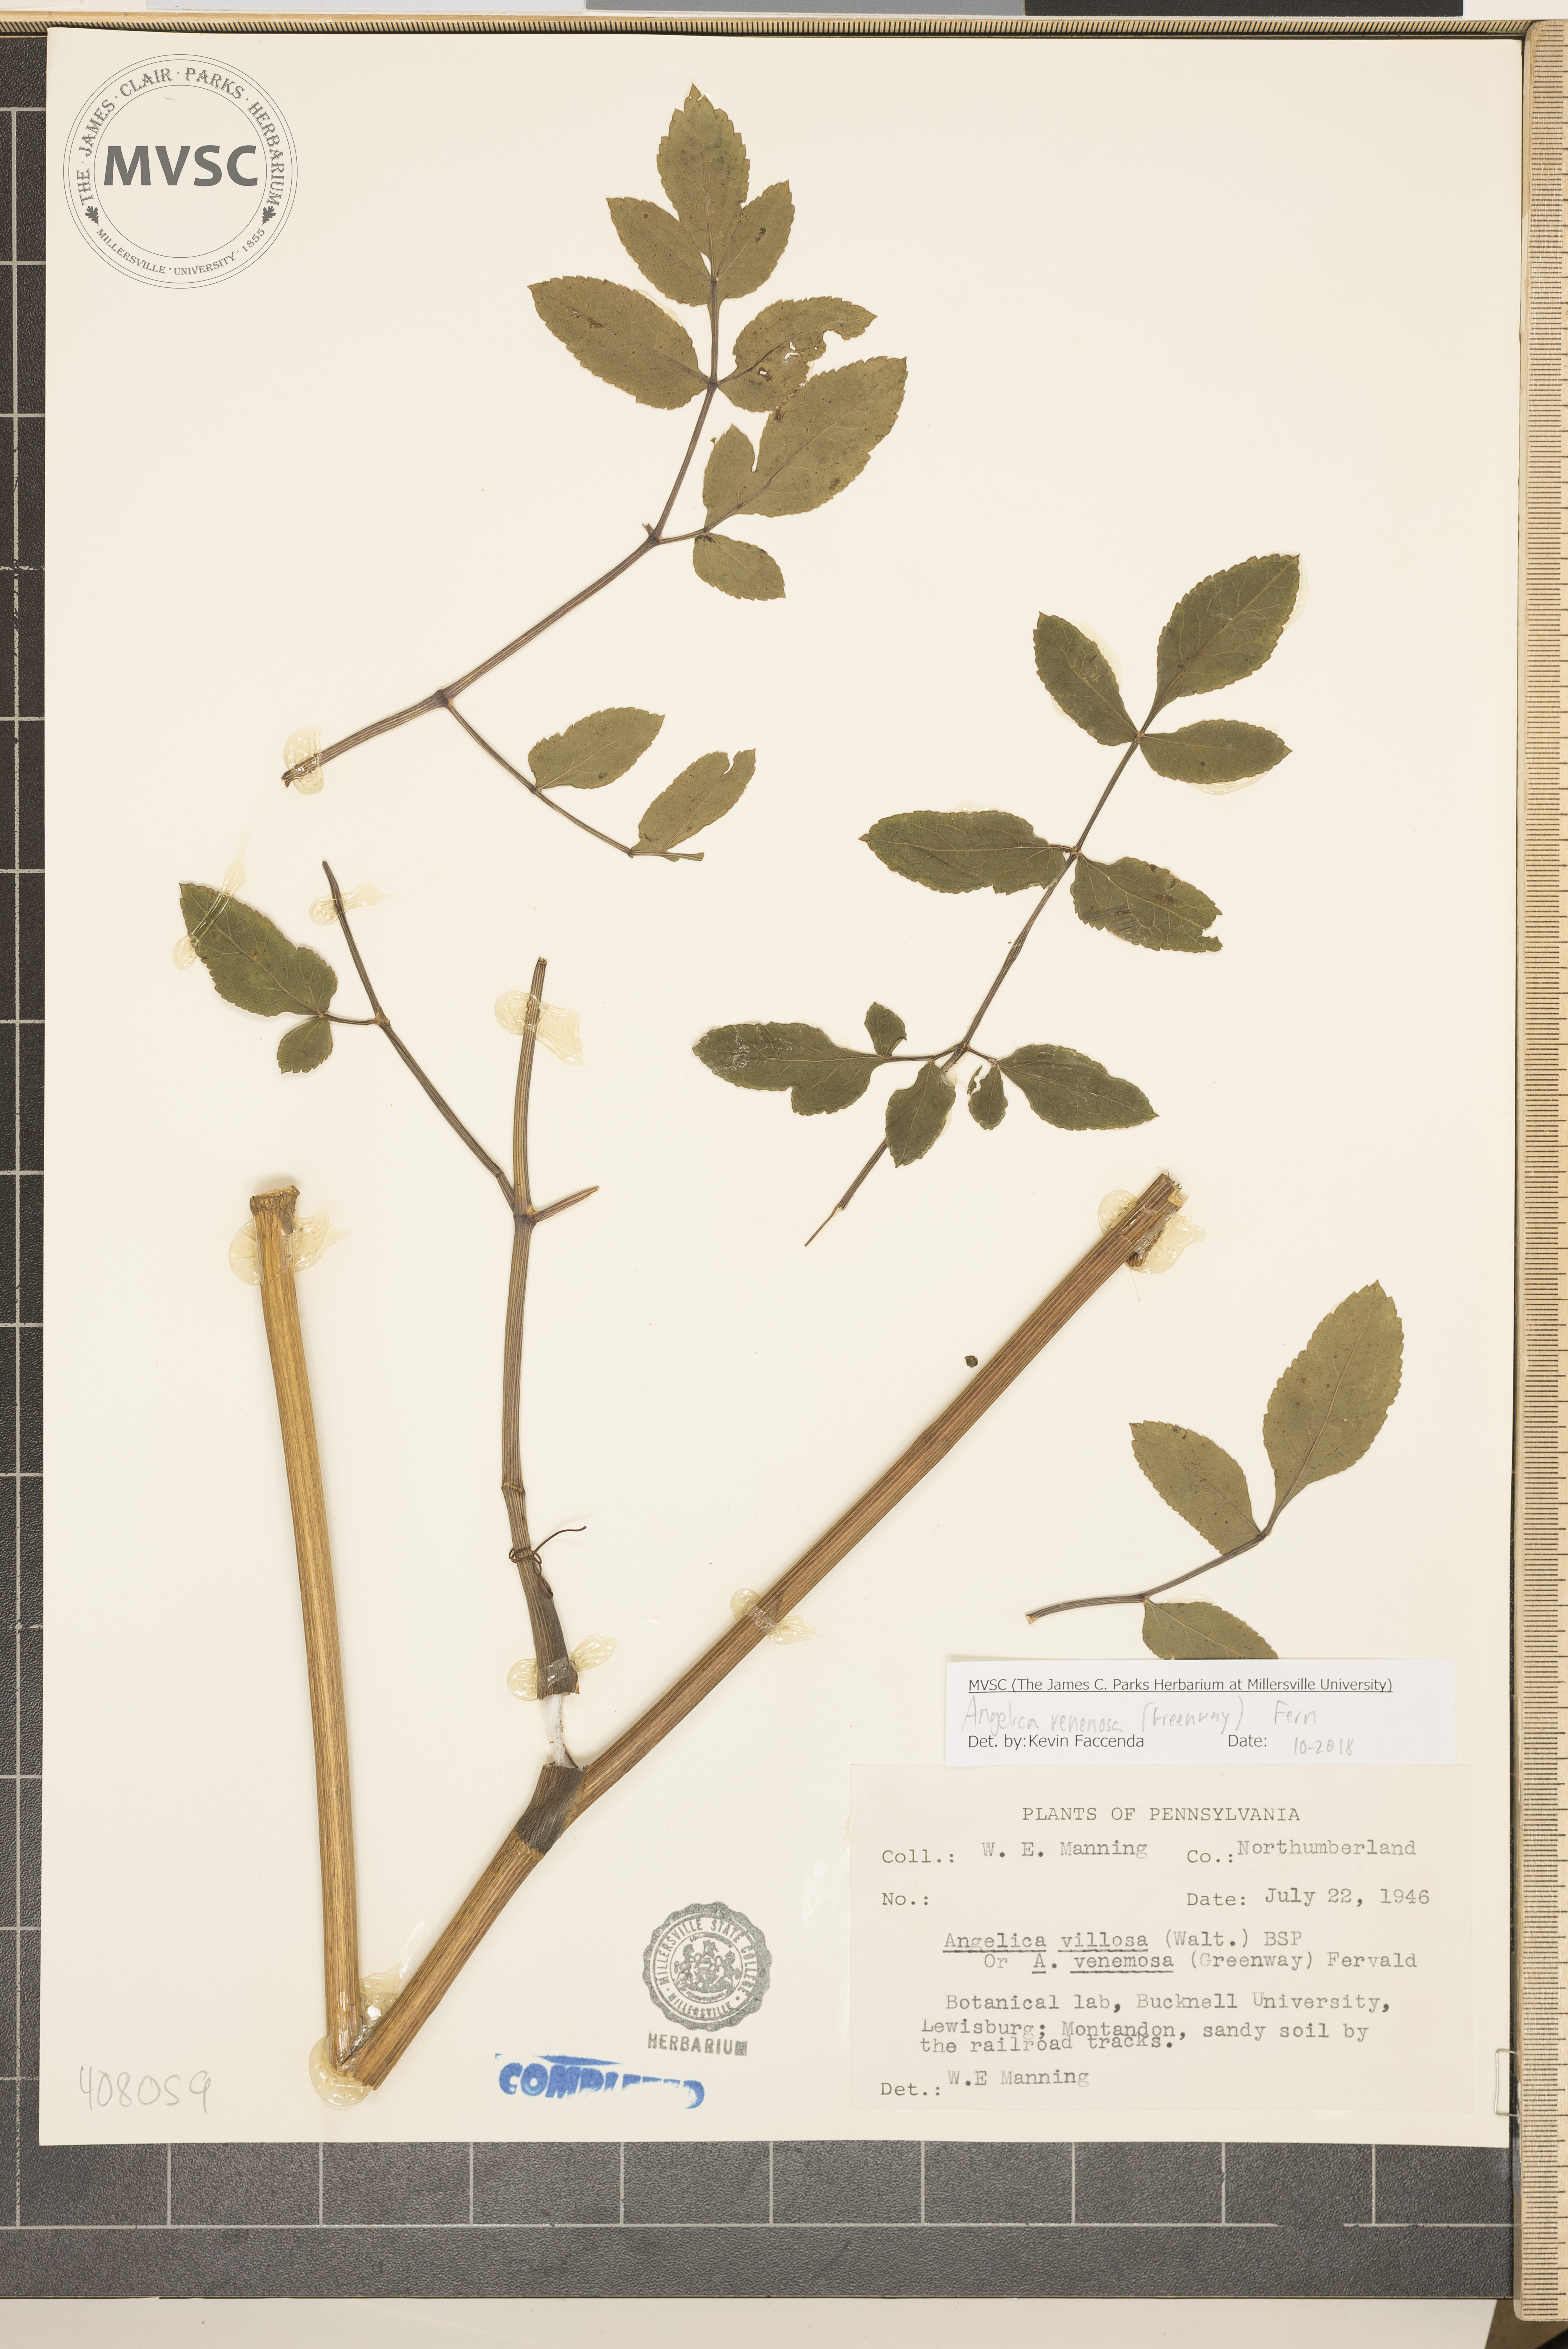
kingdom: Plantae
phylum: Tracheophyta
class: Magnoliopsida
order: Apiales
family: Apiaceae
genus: Angelica
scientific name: Angelica venenosa
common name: Hairy angelica
